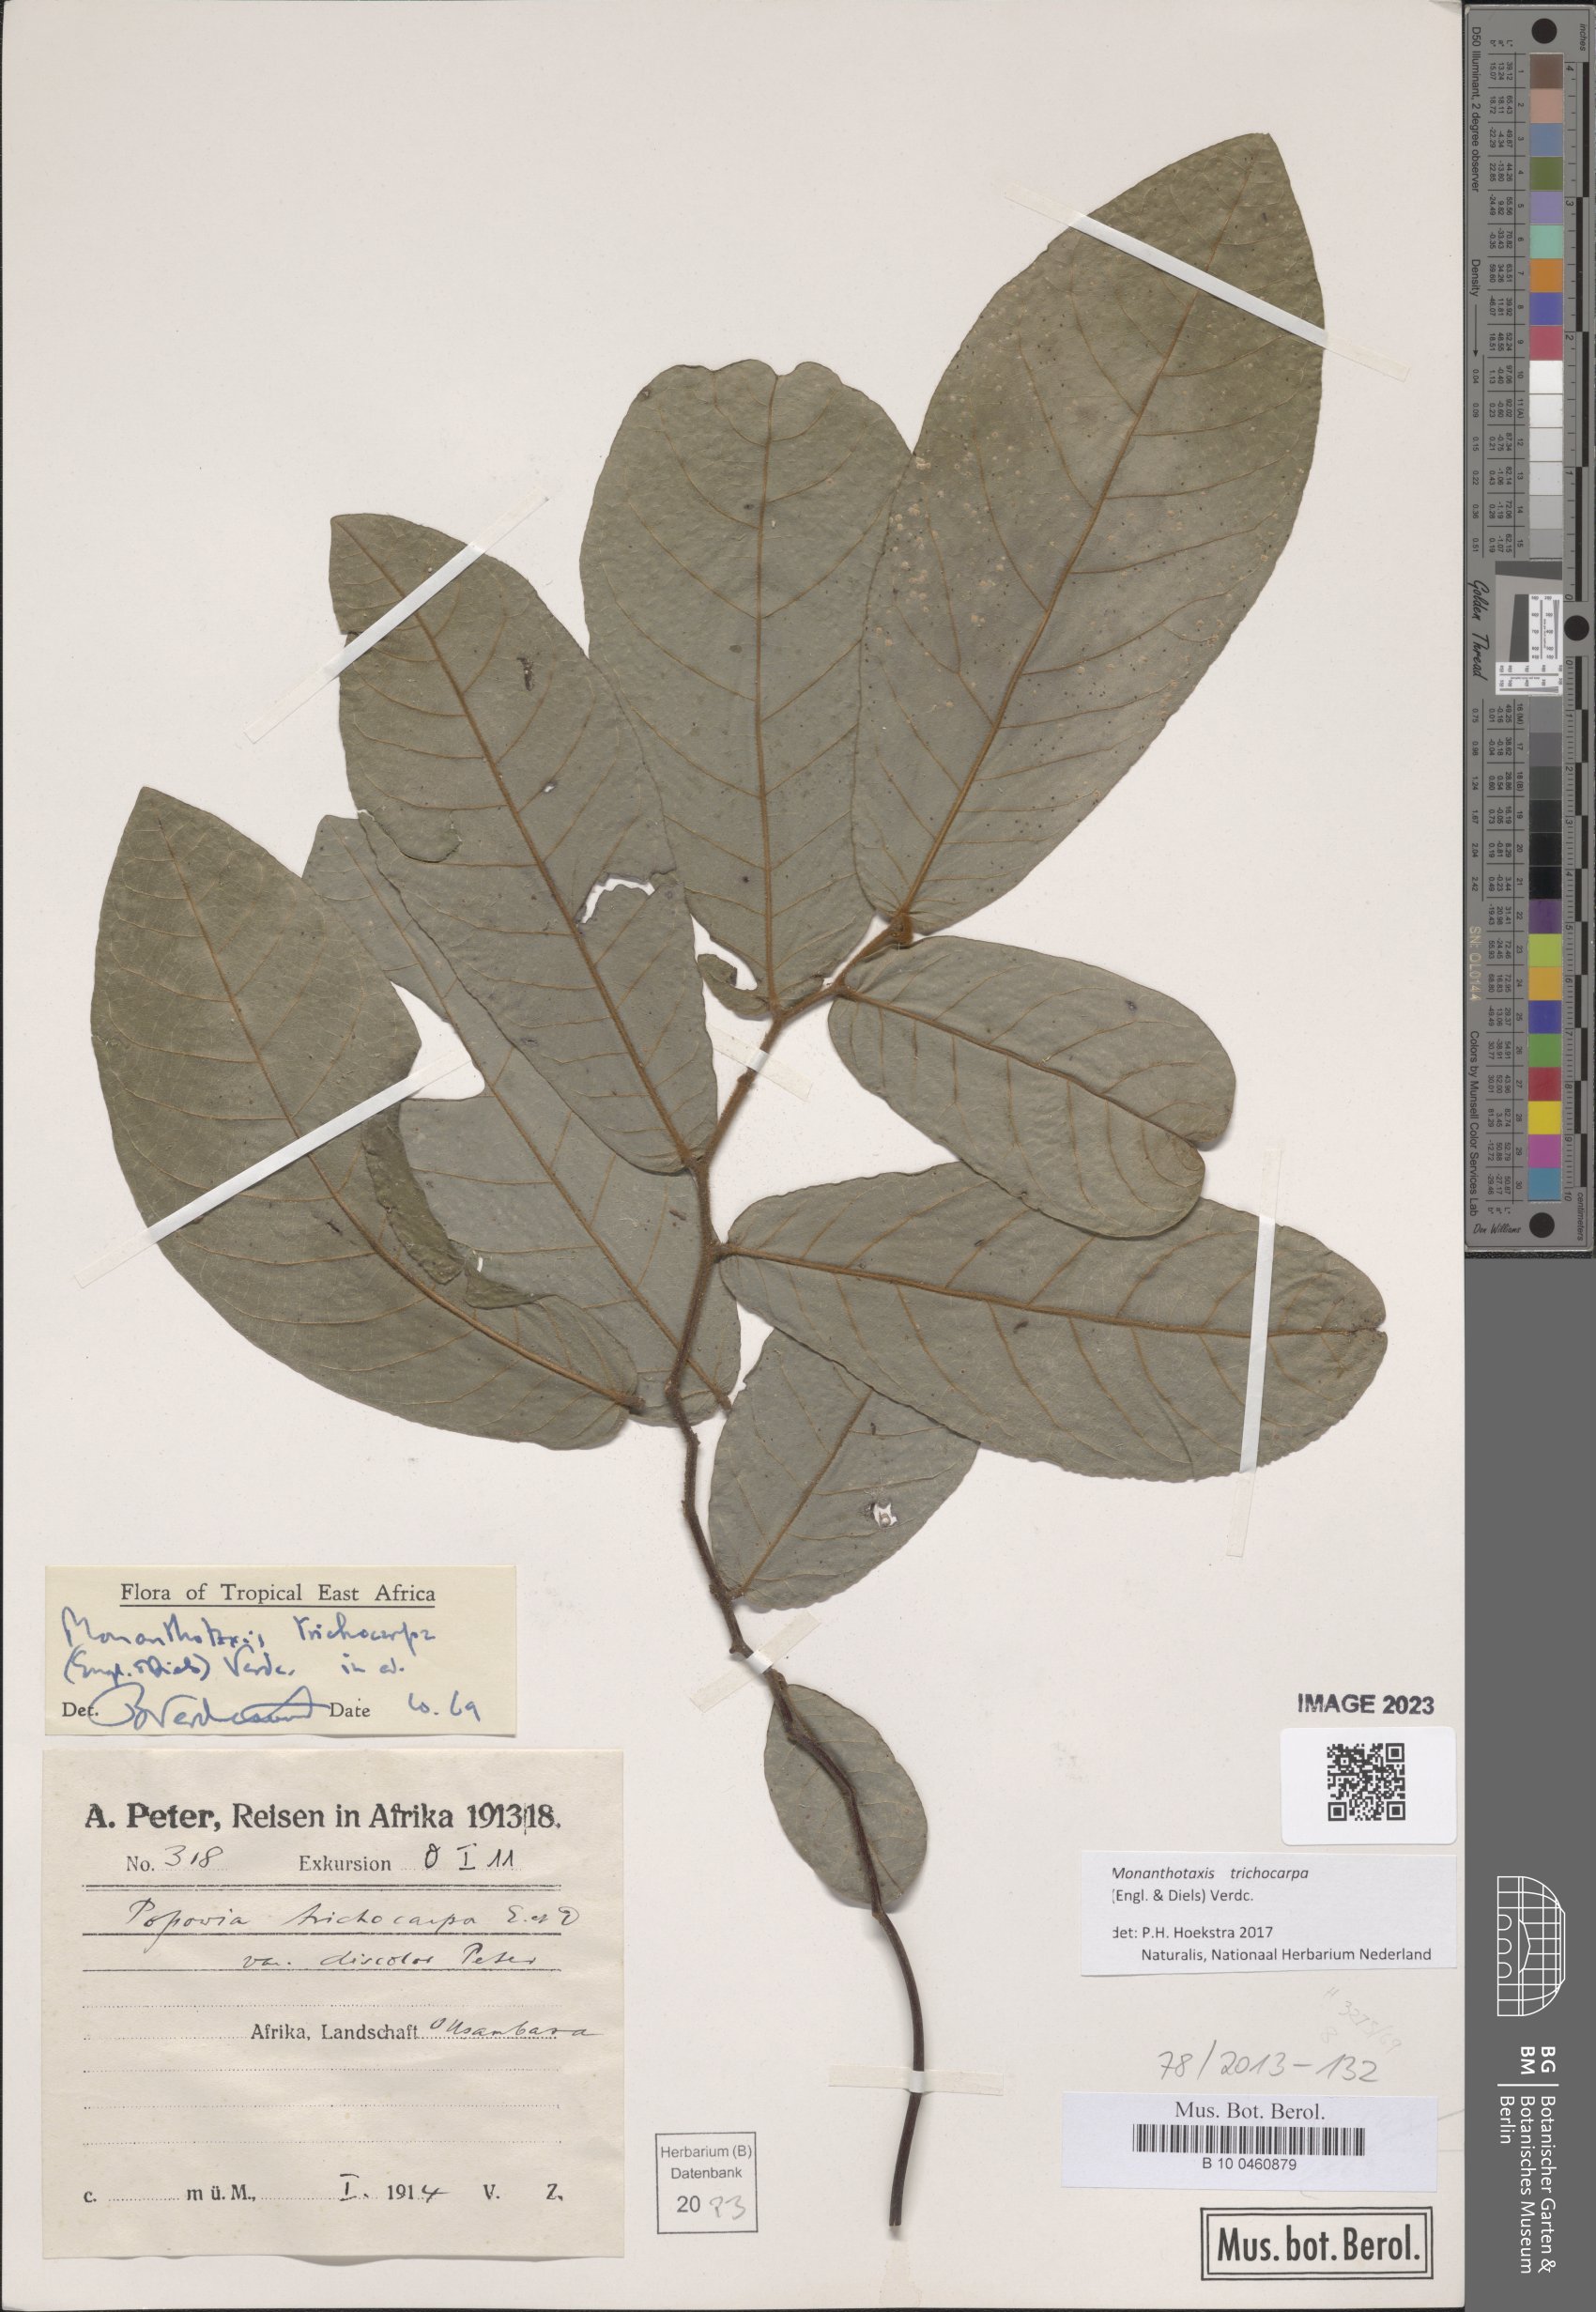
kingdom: Plantae
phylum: Tracheophyta
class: Magnoliopsida
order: Magnoliales
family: Annonaceae
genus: Monanthotaxis
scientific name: Monanthotaxis trichocarpa
